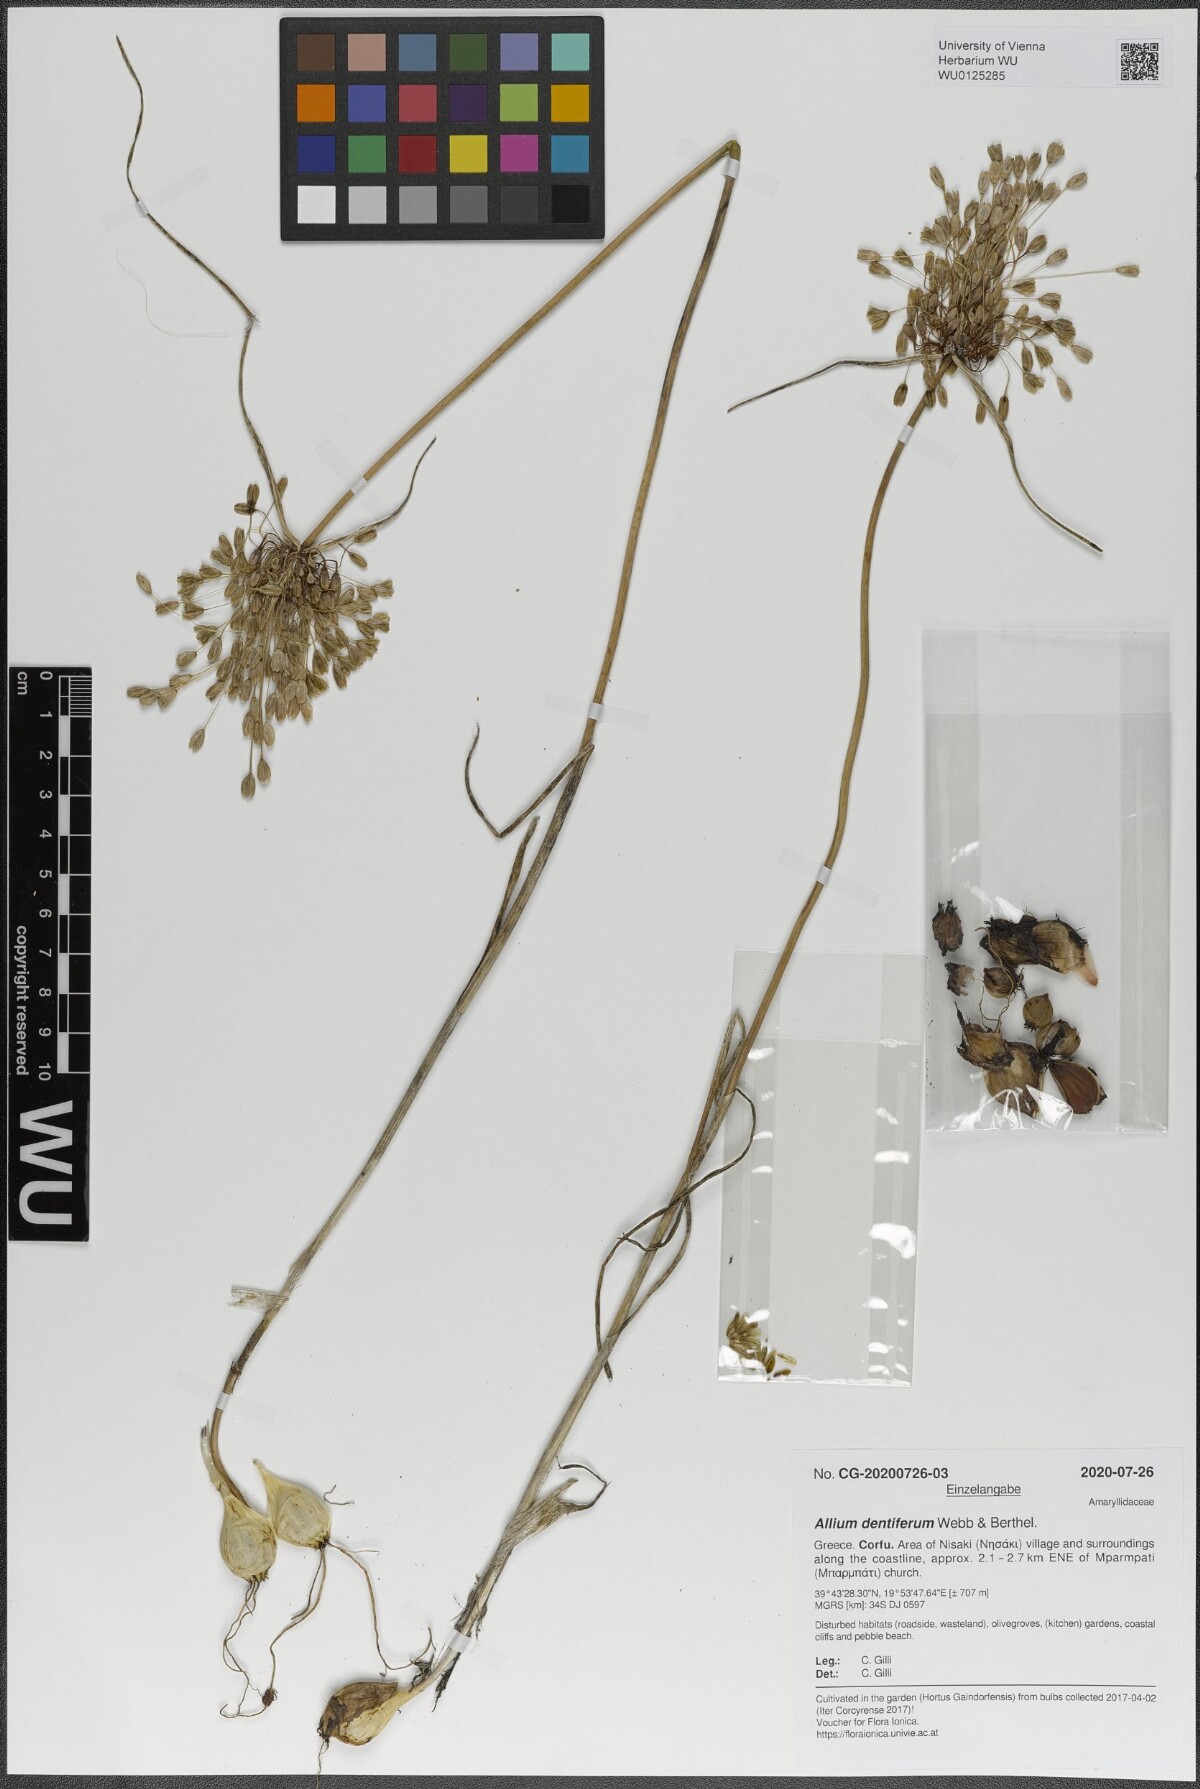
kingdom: Plantae
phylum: Tracheophyta
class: Liliopsida
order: Asparagales
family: Amaryllidaceae
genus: Allium
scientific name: Allium longispathum
